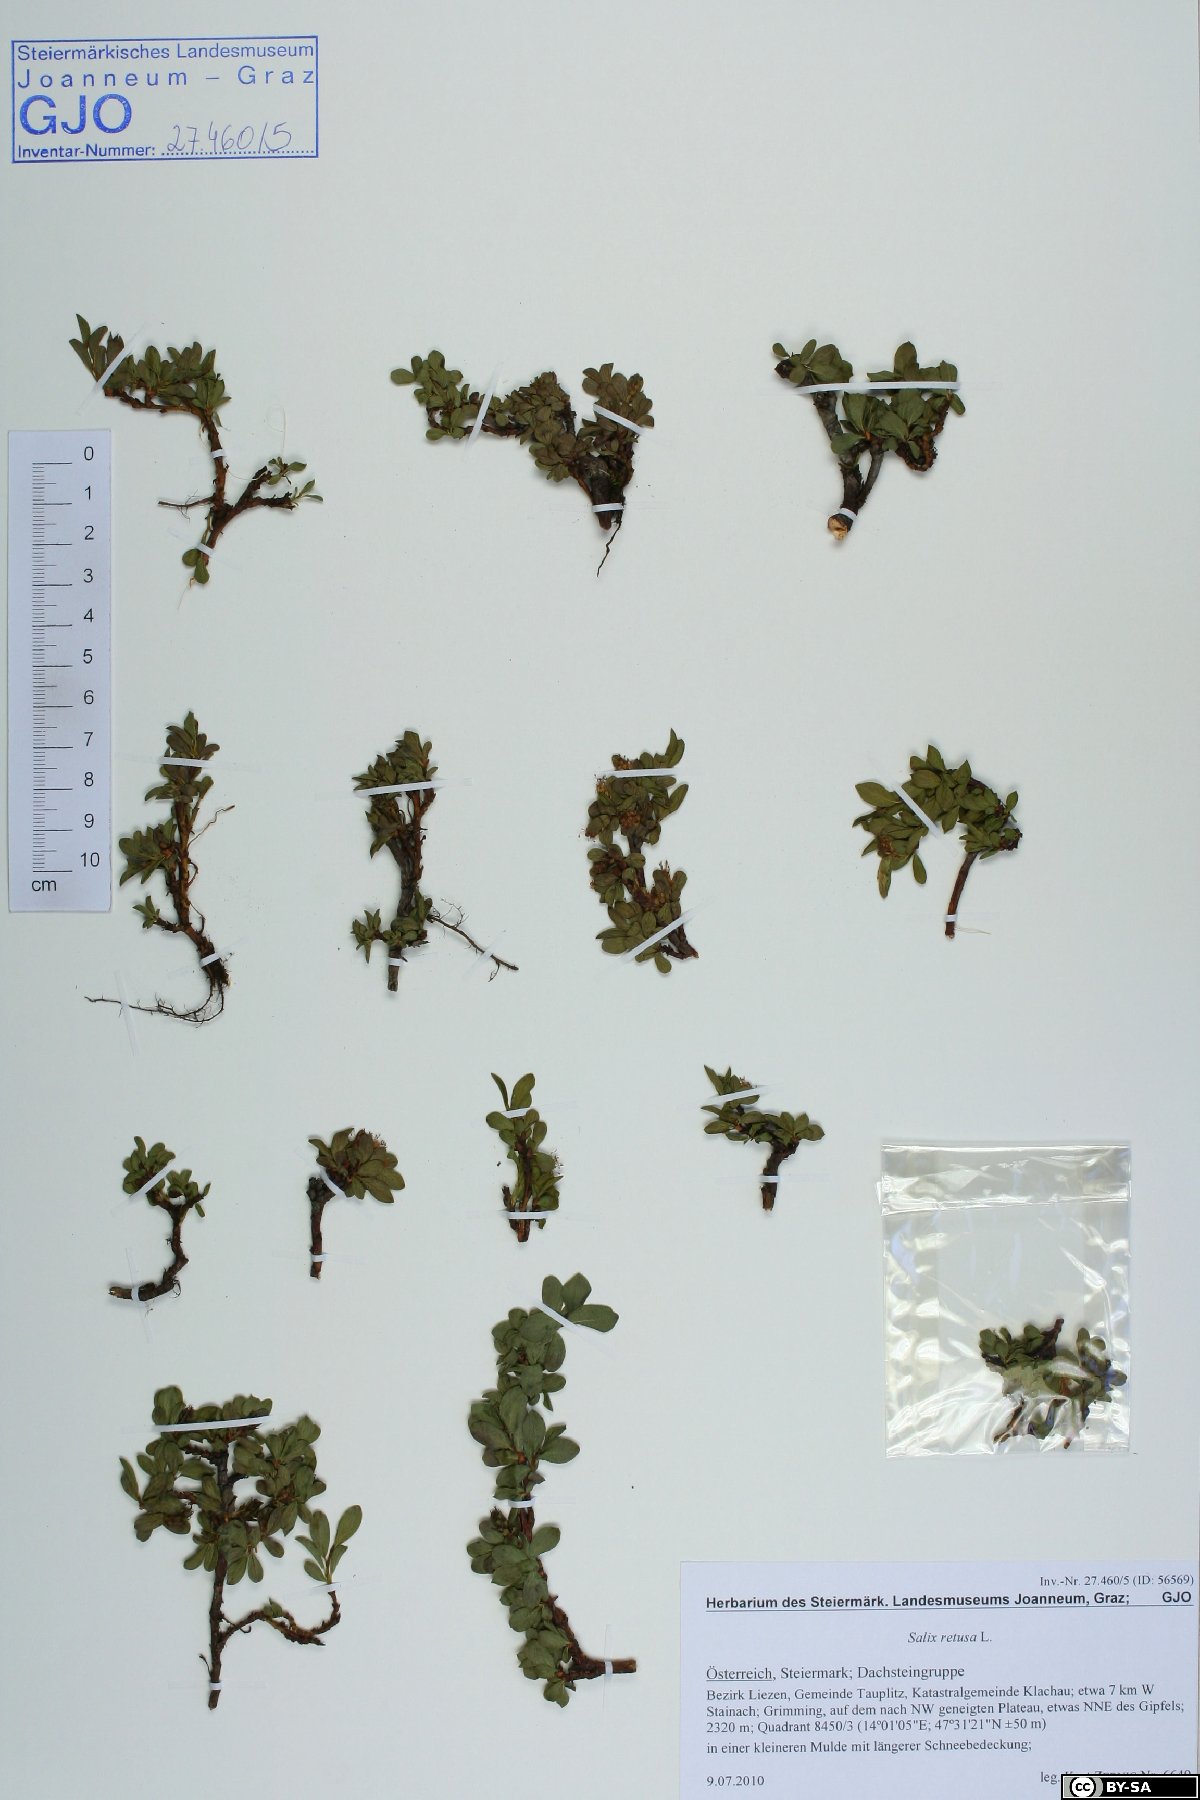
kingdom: Plantae
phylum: Tracheophyta
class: Magnoliopsida
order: Malpighiales
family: Salicaceae
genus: Salix
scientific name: Salix retusa
